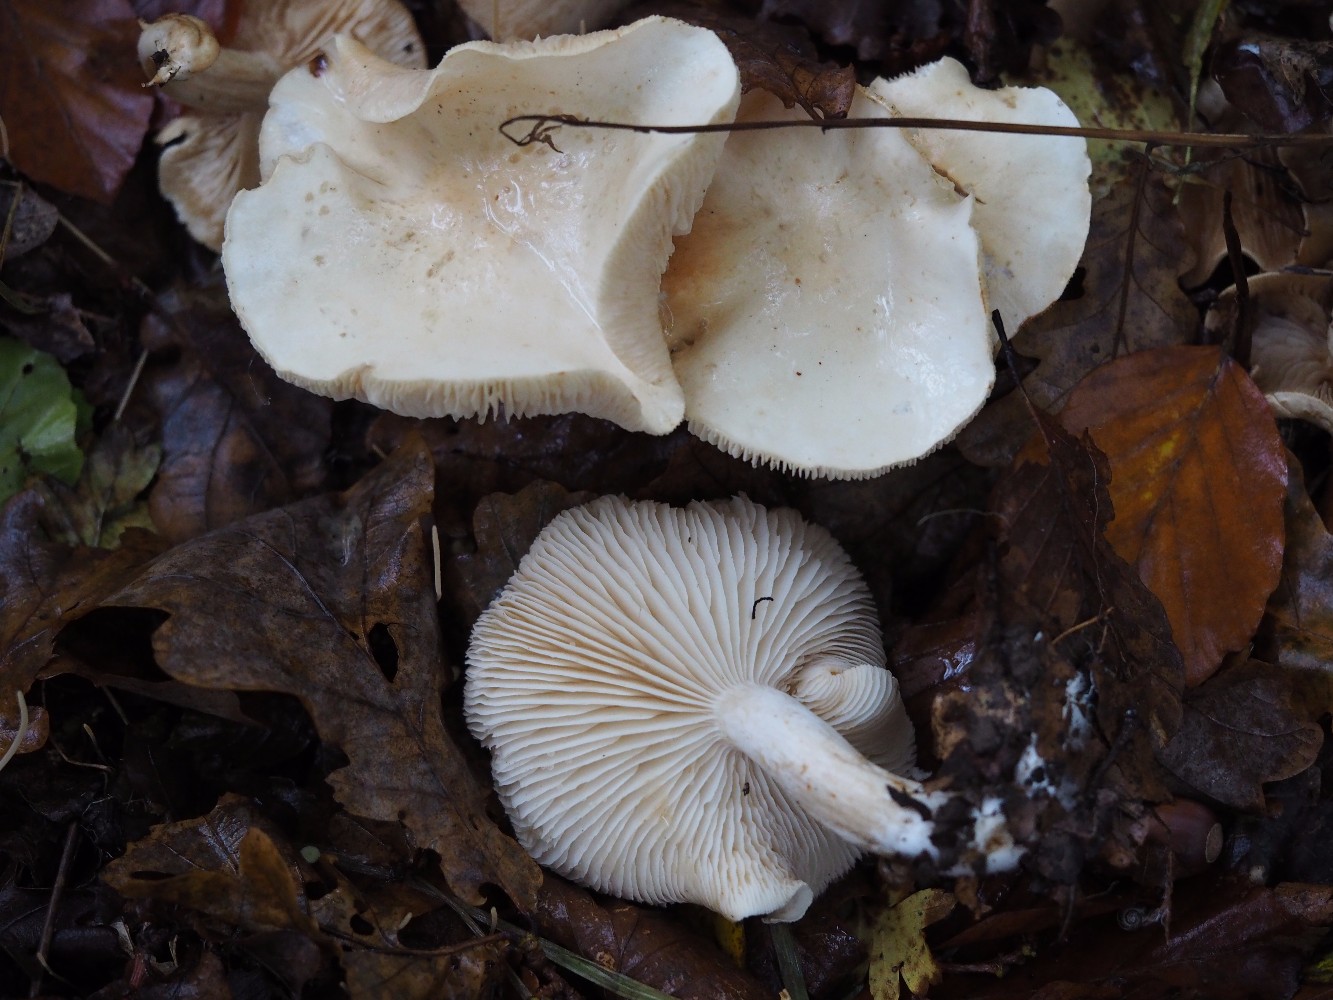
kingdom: Fungi
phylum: Basidiomycota
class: Agaricomycetes
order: Agaricales
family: Tricholomataceae
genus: Tricholoma
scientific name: Tricholoma album
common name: honning-ridderhat
